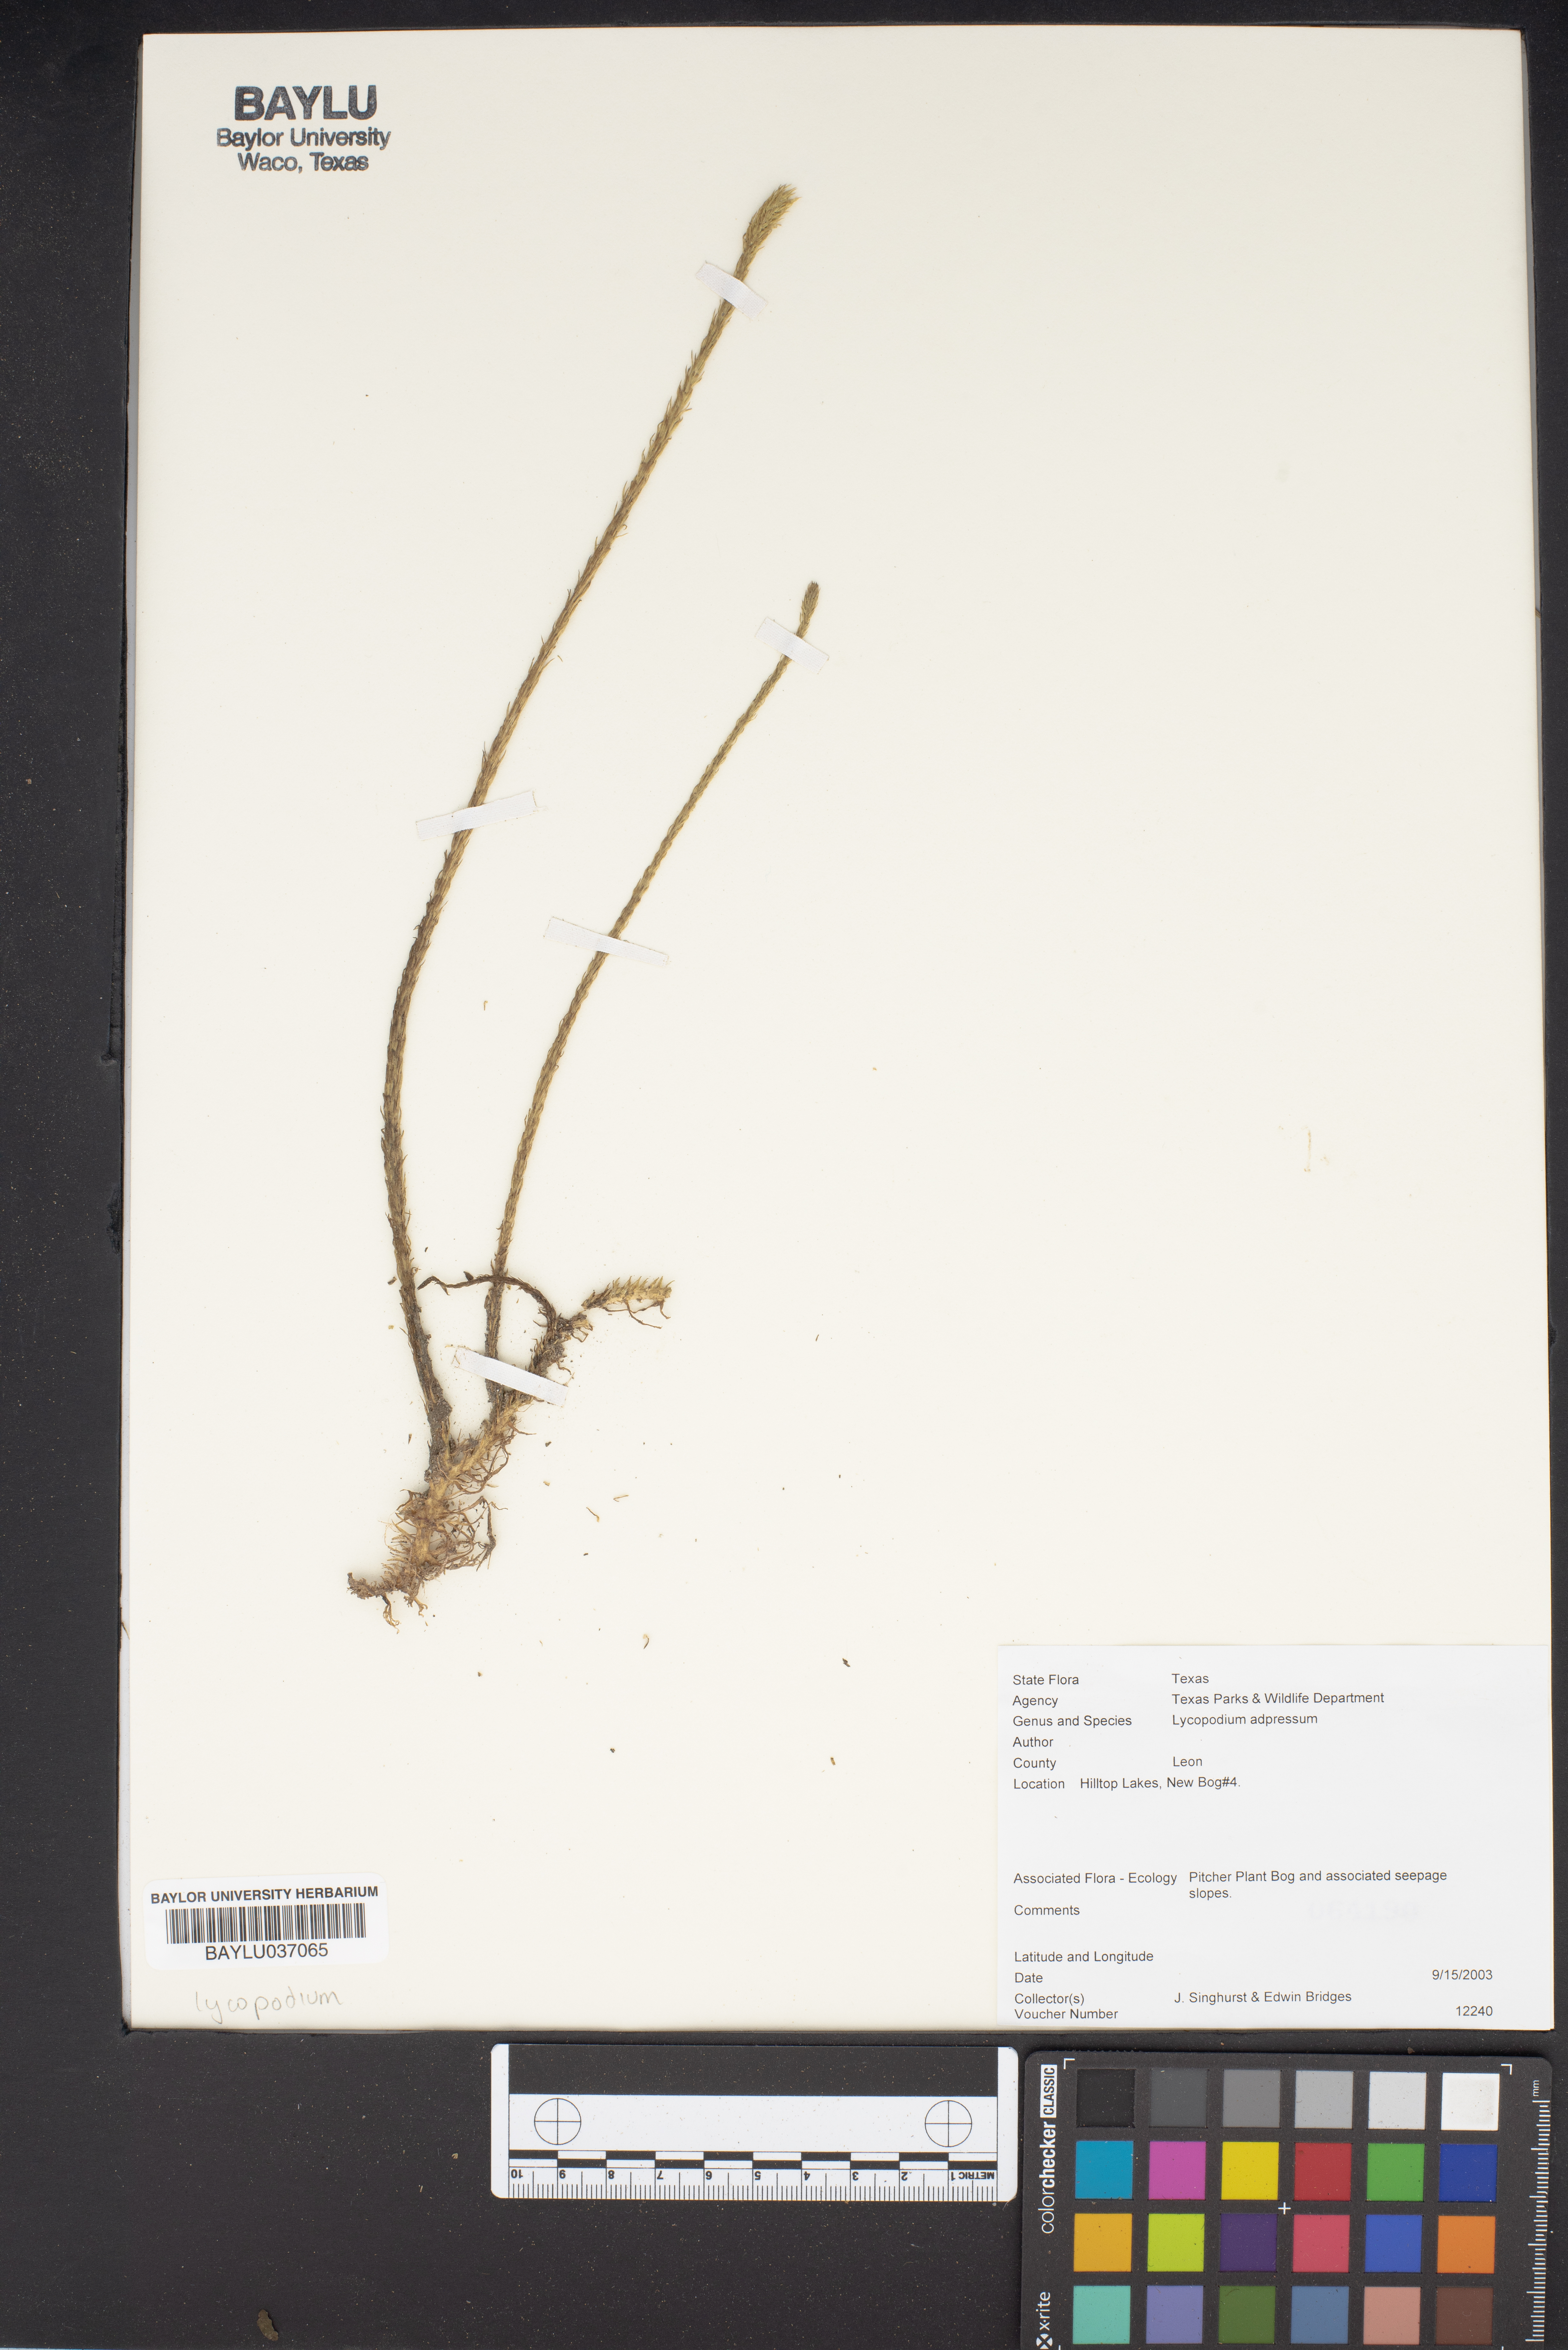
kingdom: Plantae
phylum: Tracheophyta
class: Lycopodiopsida
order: Lycopodiales
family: Lycopodiaceae
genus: Lycopodiella
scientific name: Lycopodiella appressa
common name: Appressed bog clubmoss
